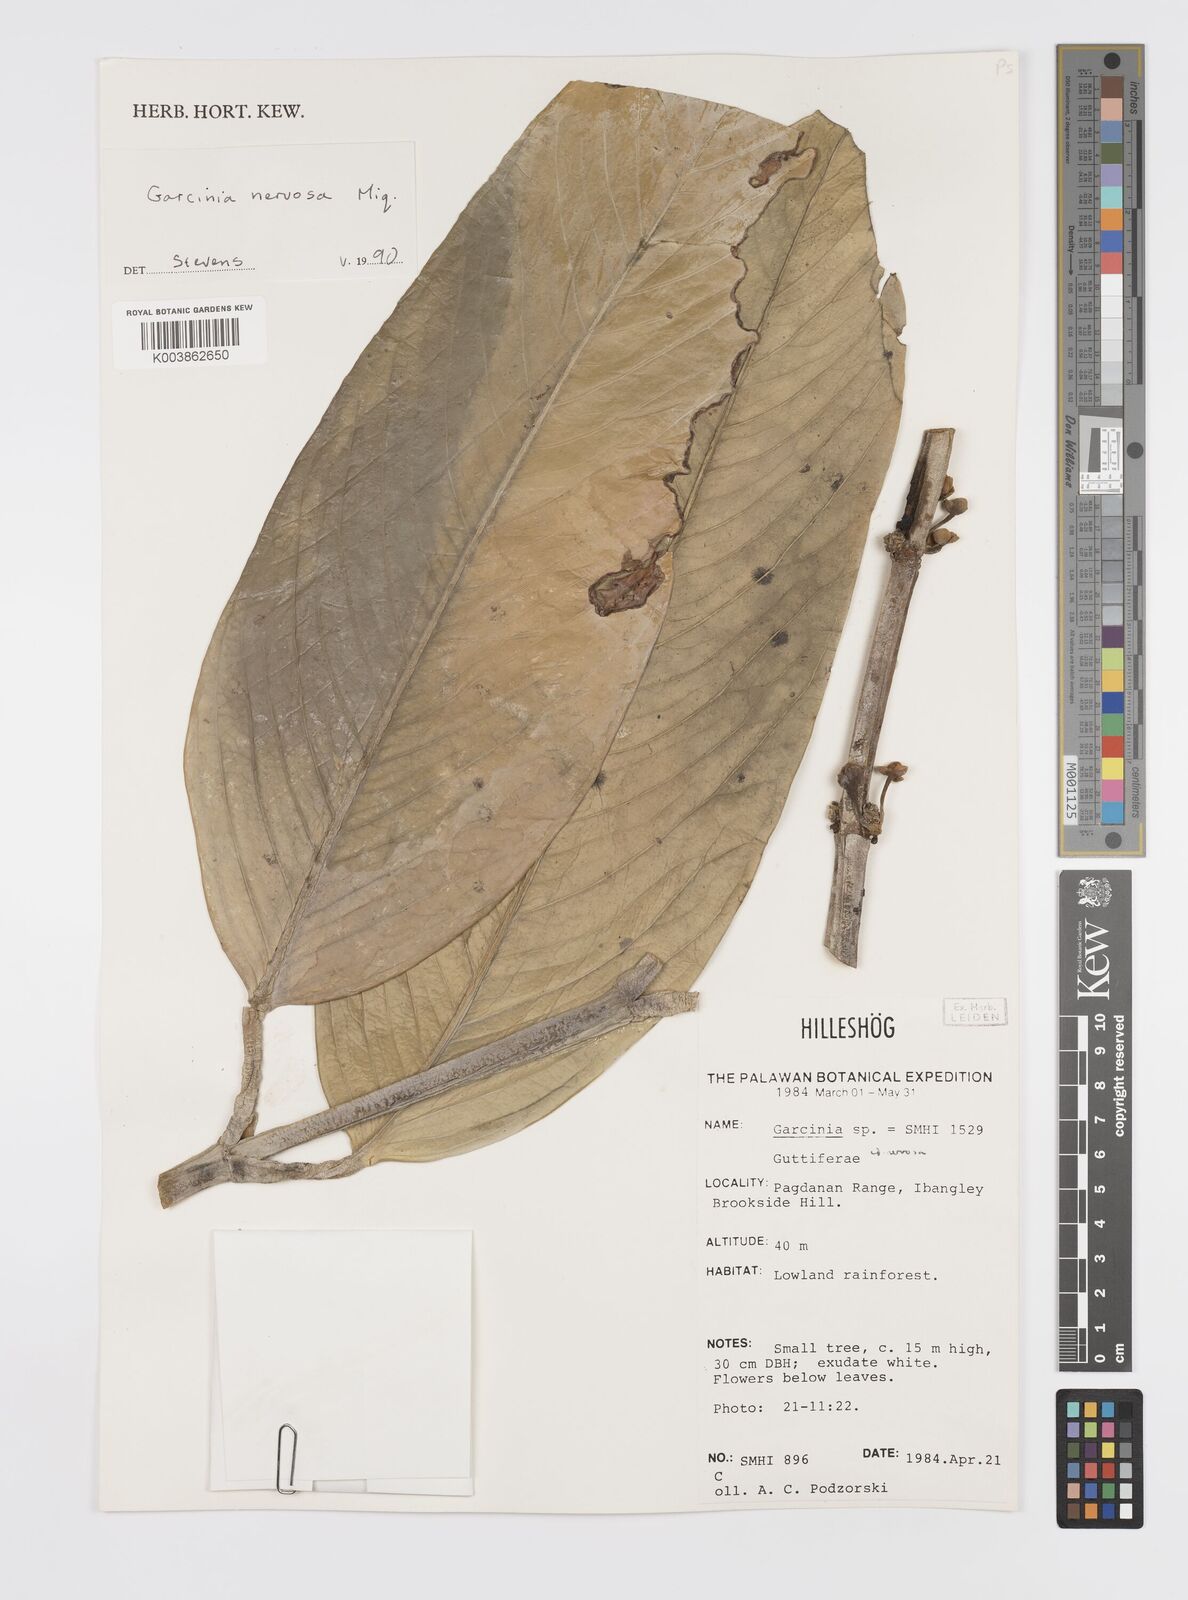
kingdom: Plantae
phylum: Tracheophyta
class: Magnoliopsida
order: Malpighiales
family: Clusiaceae
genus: Garcinia
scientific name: Garcinia nervosa
